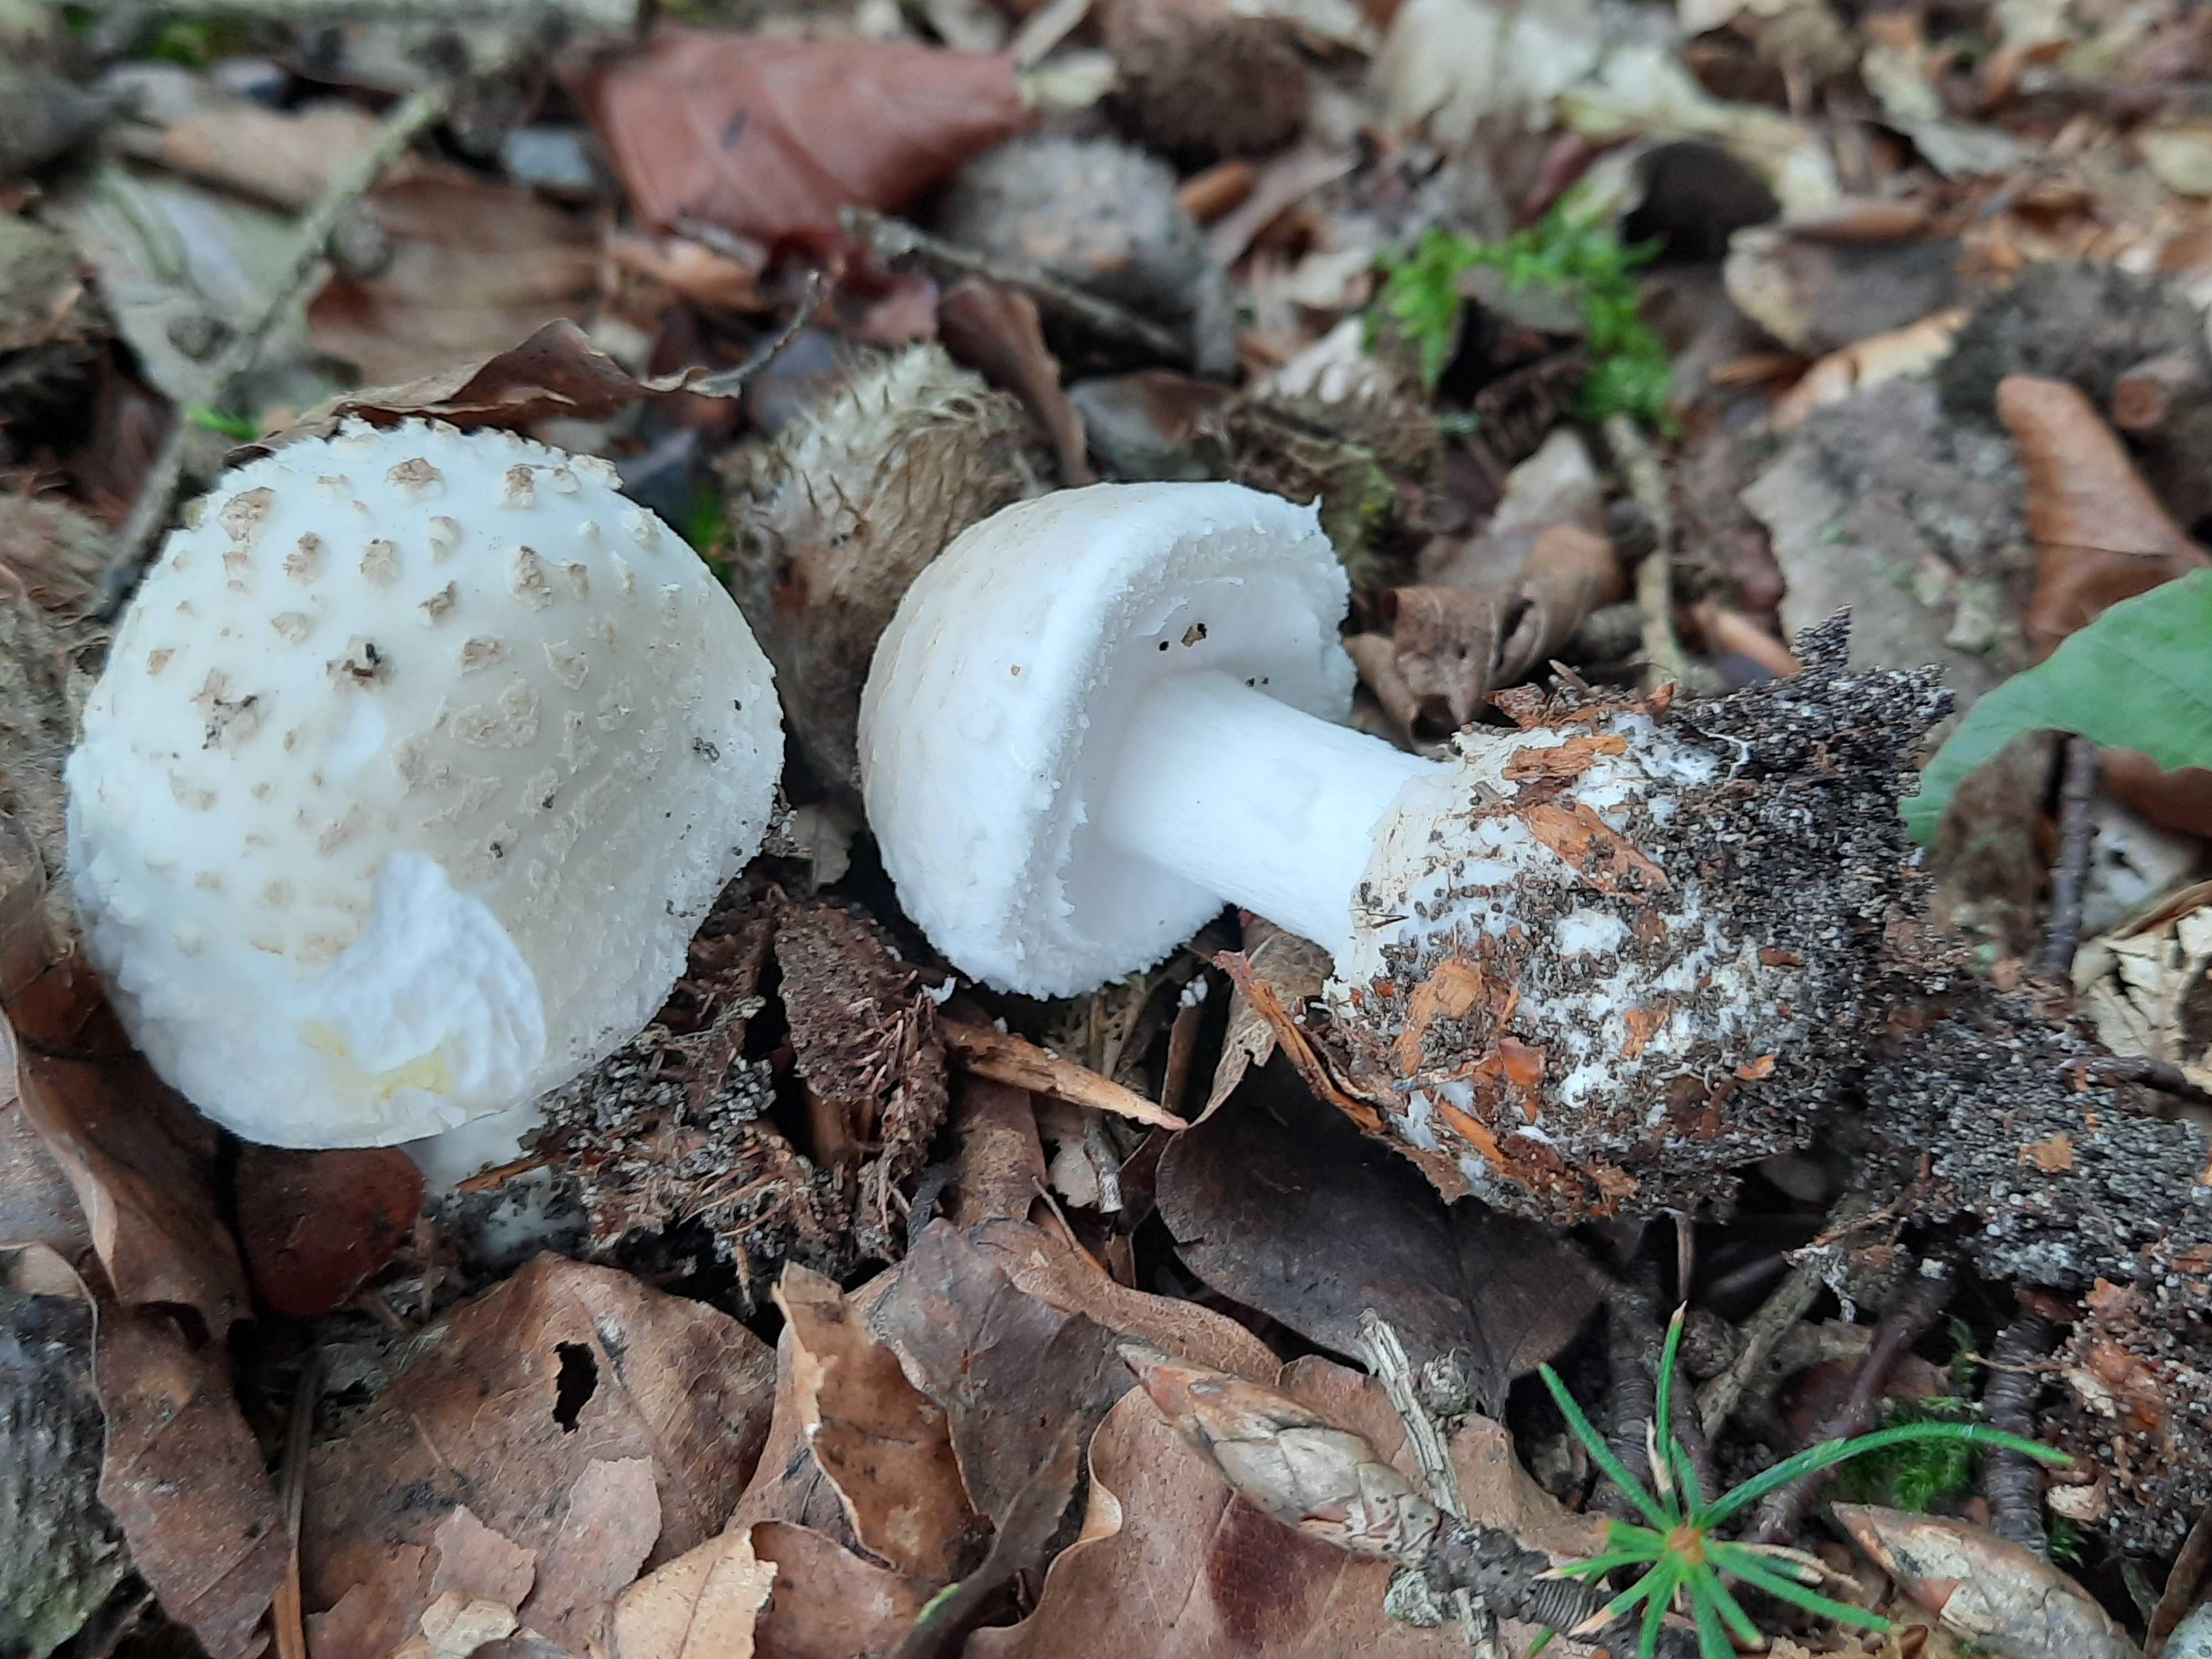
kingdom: Fungi
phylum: Basidiomycota
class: Agaricomycetes
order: Agaricales
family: Amanitaceae
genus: Amanita
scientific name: Amanita citrina
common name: False death-cap
